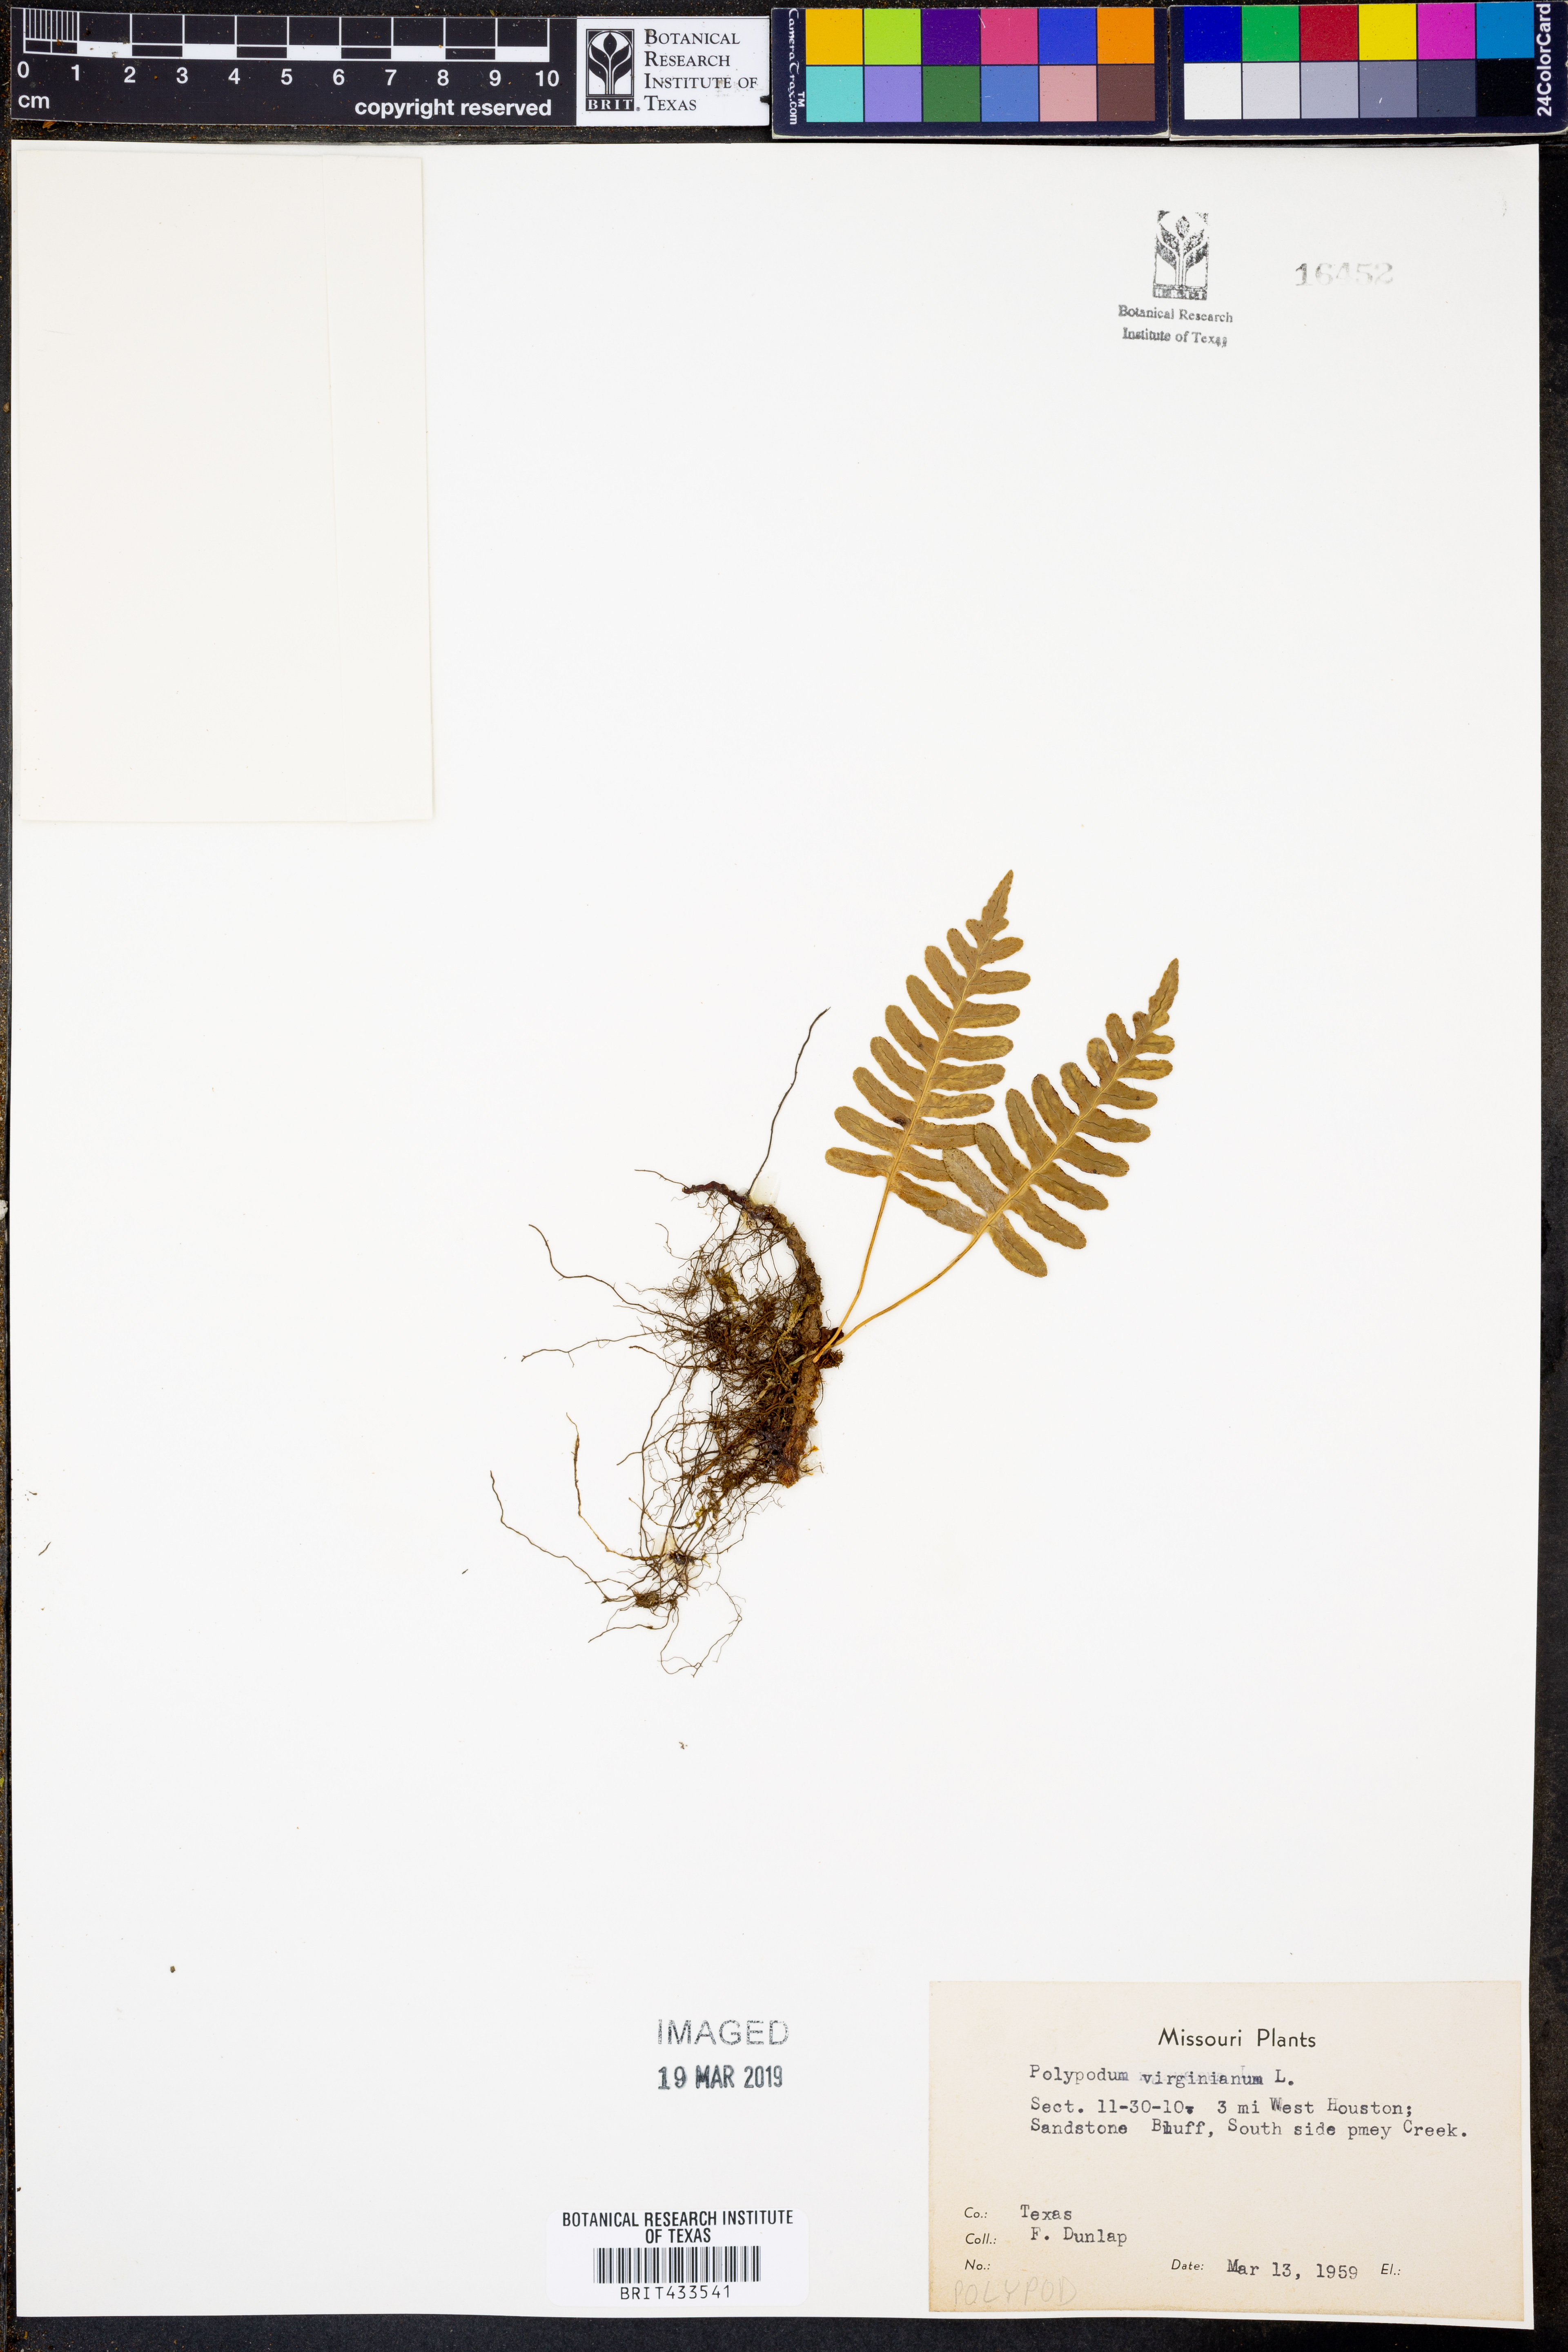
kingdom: Plantae
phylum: Tracheophyta
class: Polypodiopsida
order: Polypodiales
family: Polypodiaceae
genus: Polypodium
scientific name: Polypodium virginianum
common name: American wall fern
